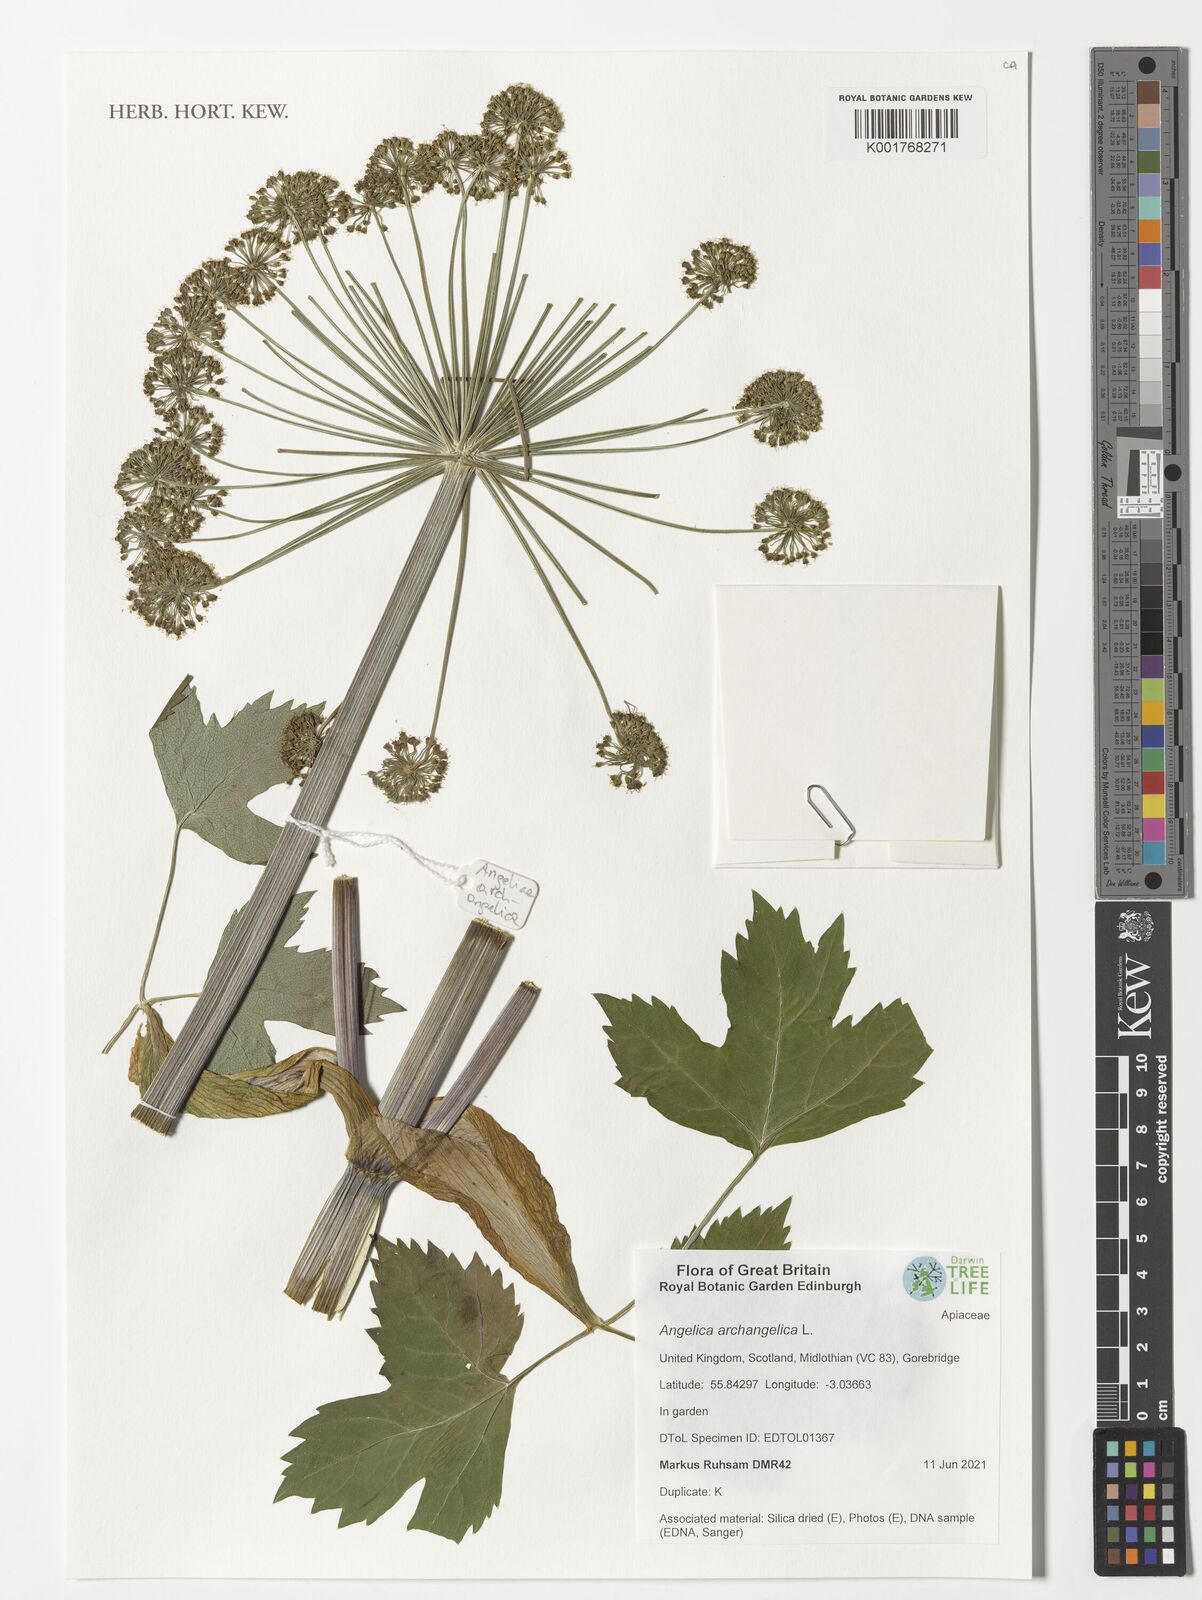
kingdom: Plantae
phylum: Tracheophyta
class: Magnoliopsida
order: Apiales
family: Apiaceae
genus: Angelica
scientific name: Angelica archangelica
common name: Garden angelica
